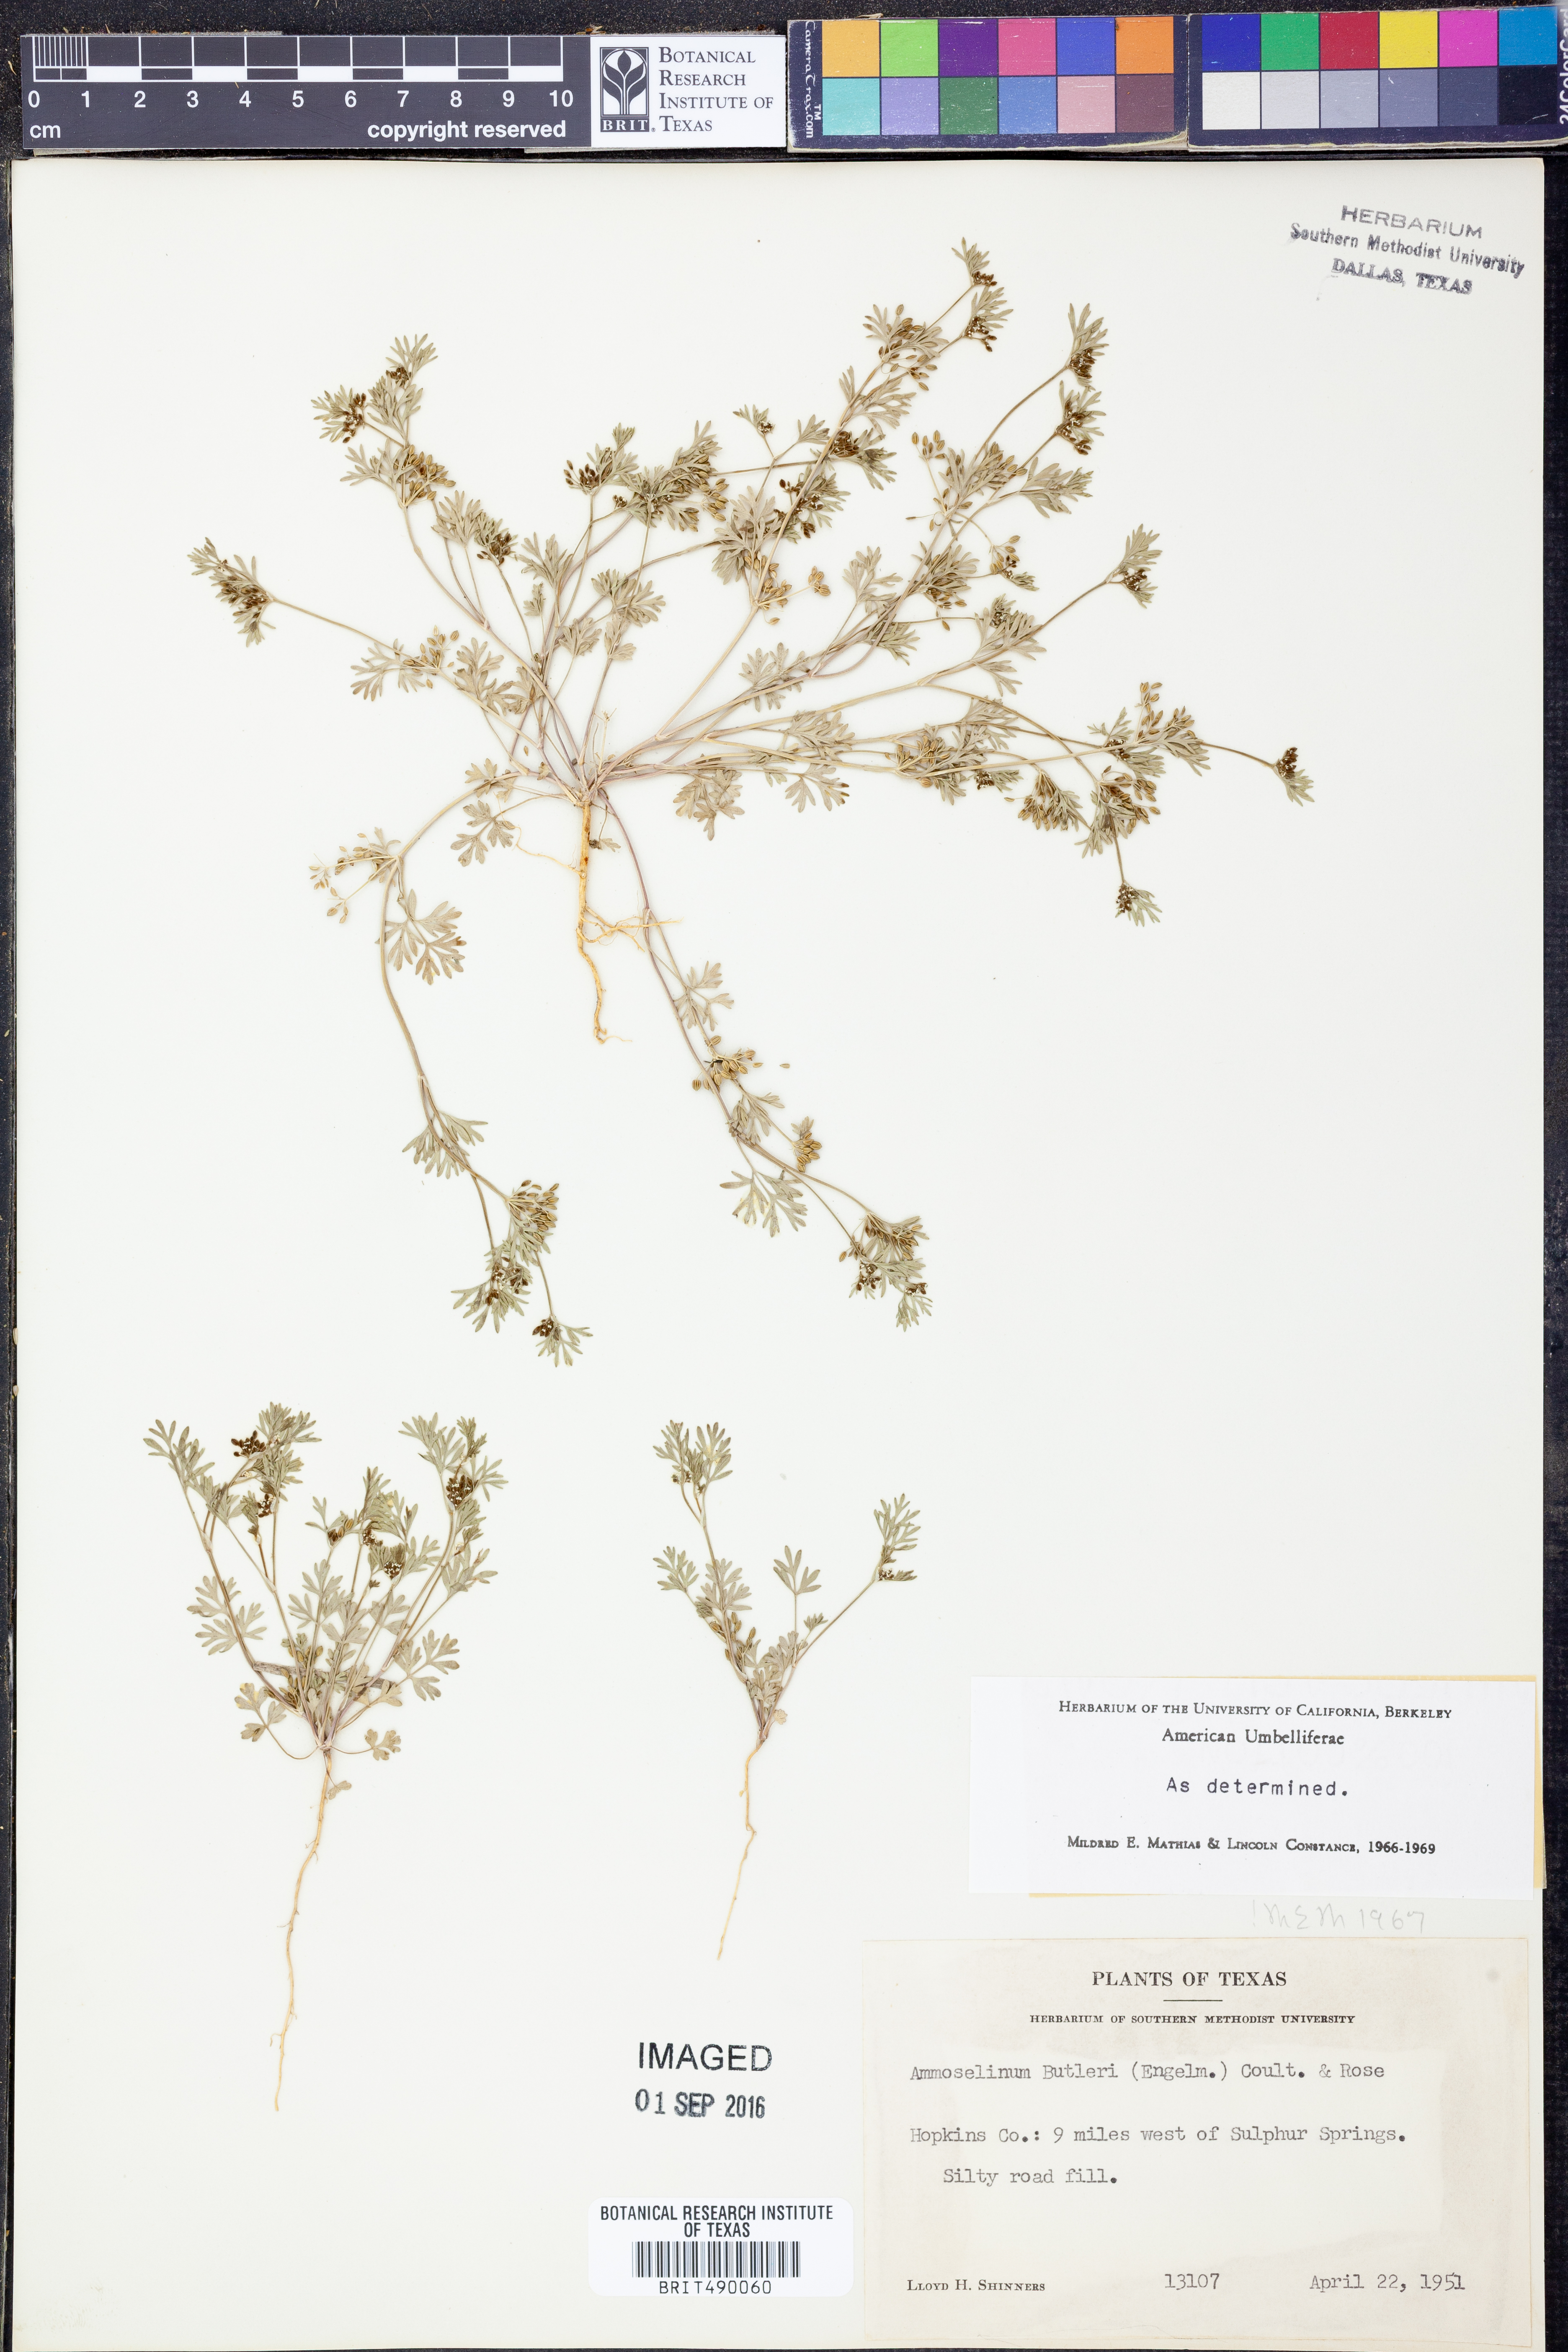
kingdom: Plantae
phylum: Tracheophyta
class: Magnoliopsida
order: Apiales
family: Apiaceae
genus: Ammoselinum
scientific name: Ammoselinum butleri
